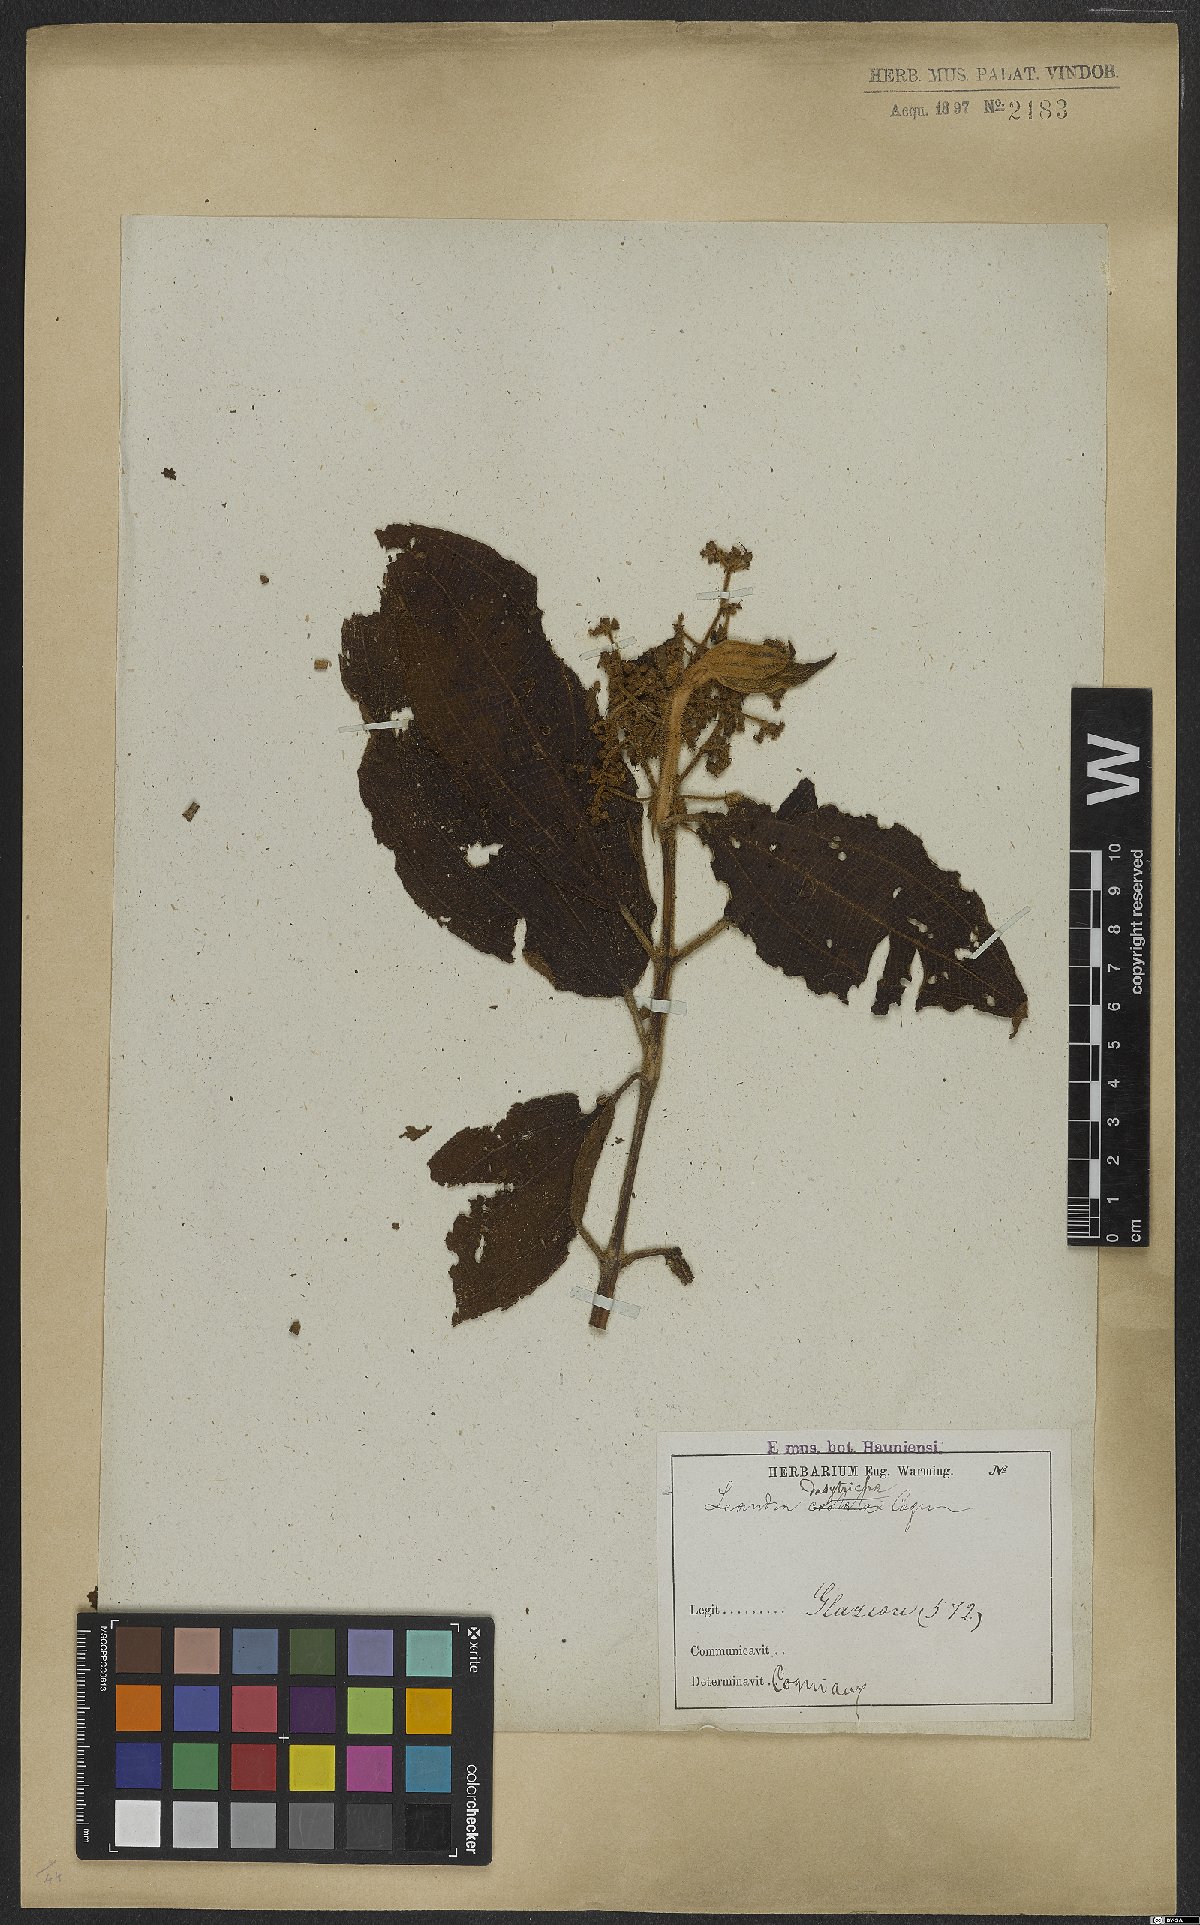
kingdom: Plantae
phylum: Tracheophyta
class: Magnoliopsida
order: Myrtales
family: Melastomataceae
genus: Miconia
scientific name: Miconia dasytricha
